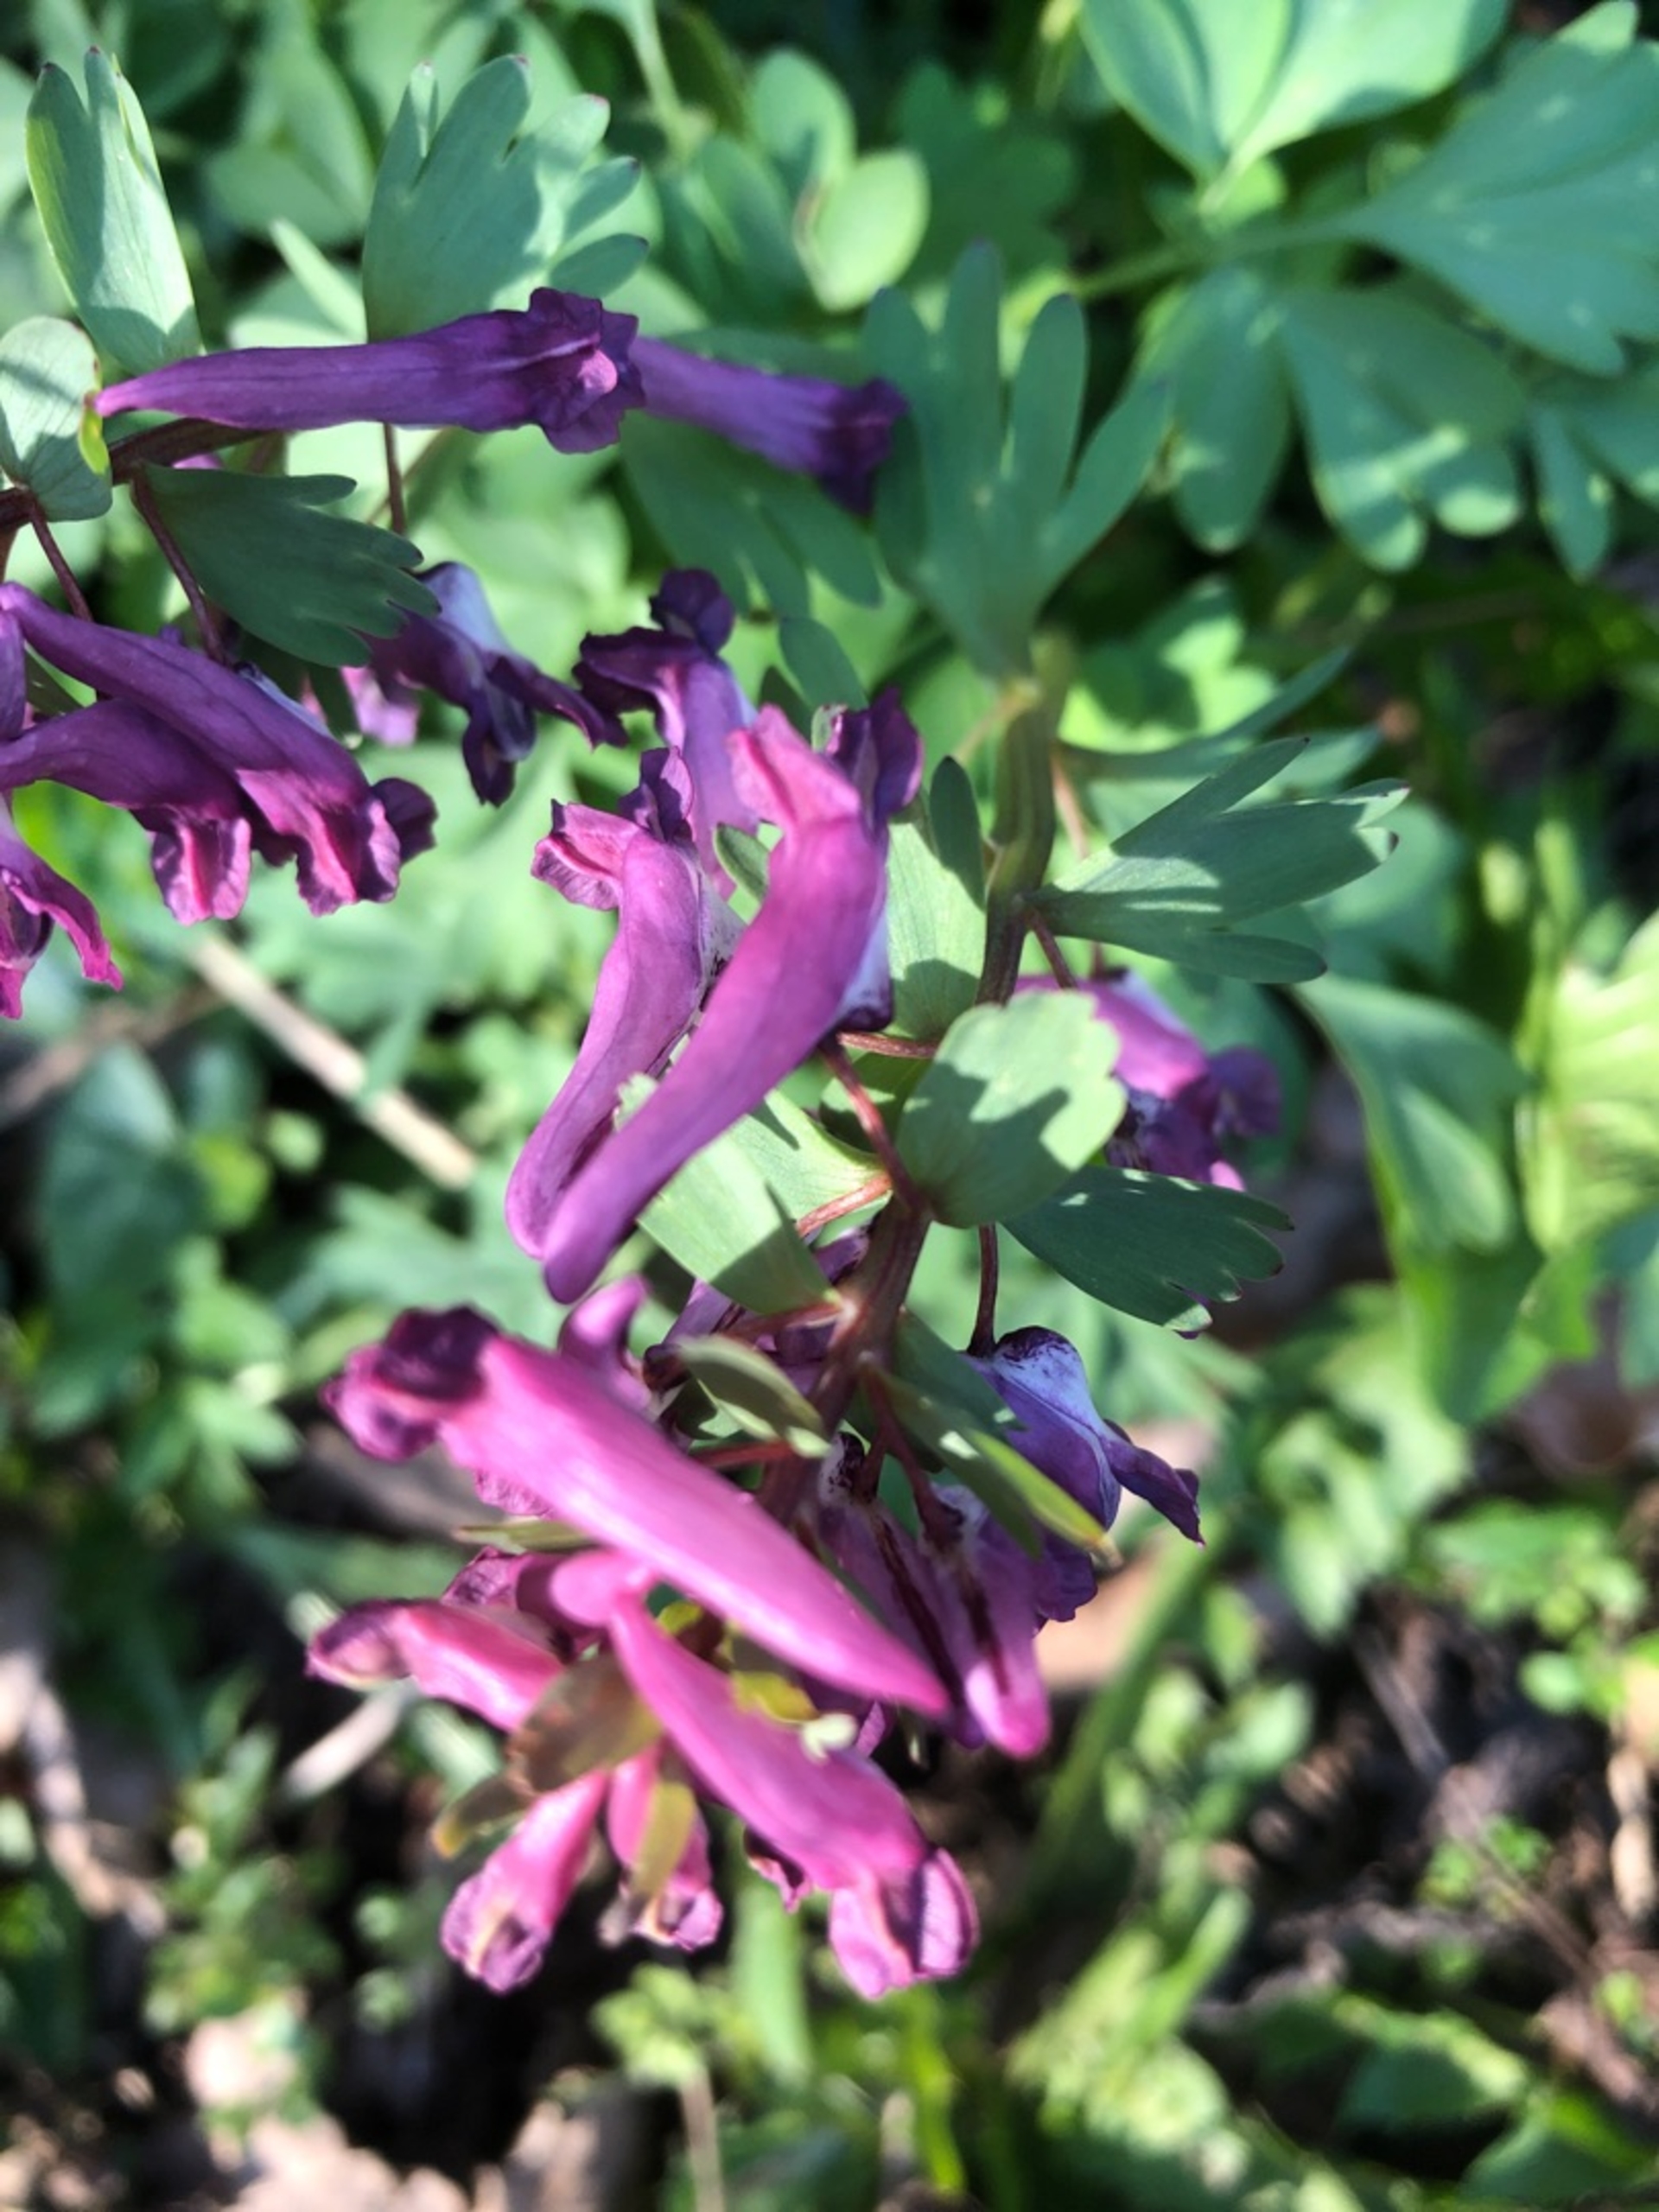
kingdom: Plantae
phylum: Tracheophyta
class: Magnoliopsida
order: Ranunculales
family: Papaveraceae
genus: Corydalis
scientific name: Corydalis solida
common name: Langstilket lærkespore
